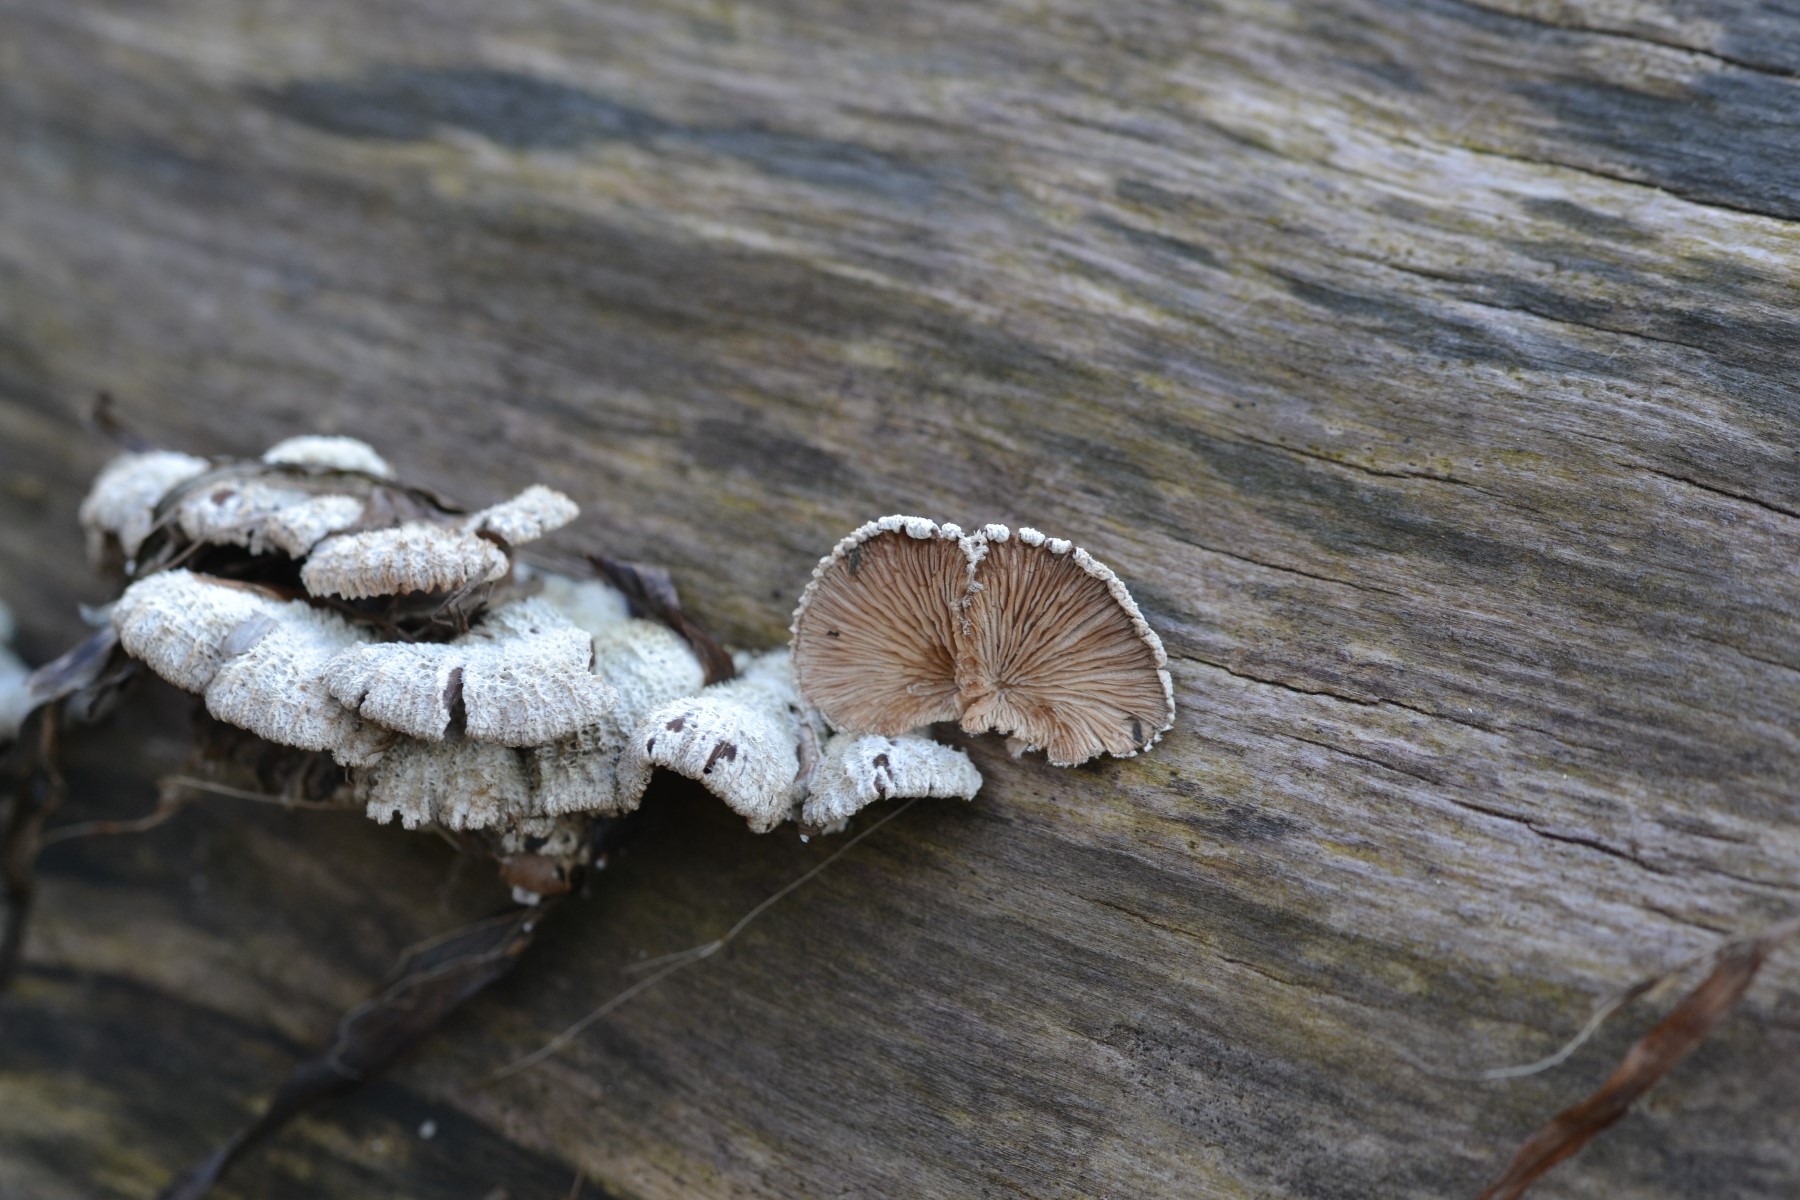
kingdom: Fungi
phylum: Basidiomycota
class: Agaricomycetes
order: Agaricales
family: Schizophyllaceae
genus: Schizophyllum
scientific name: Schizophyllum commune
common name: kløvblad
